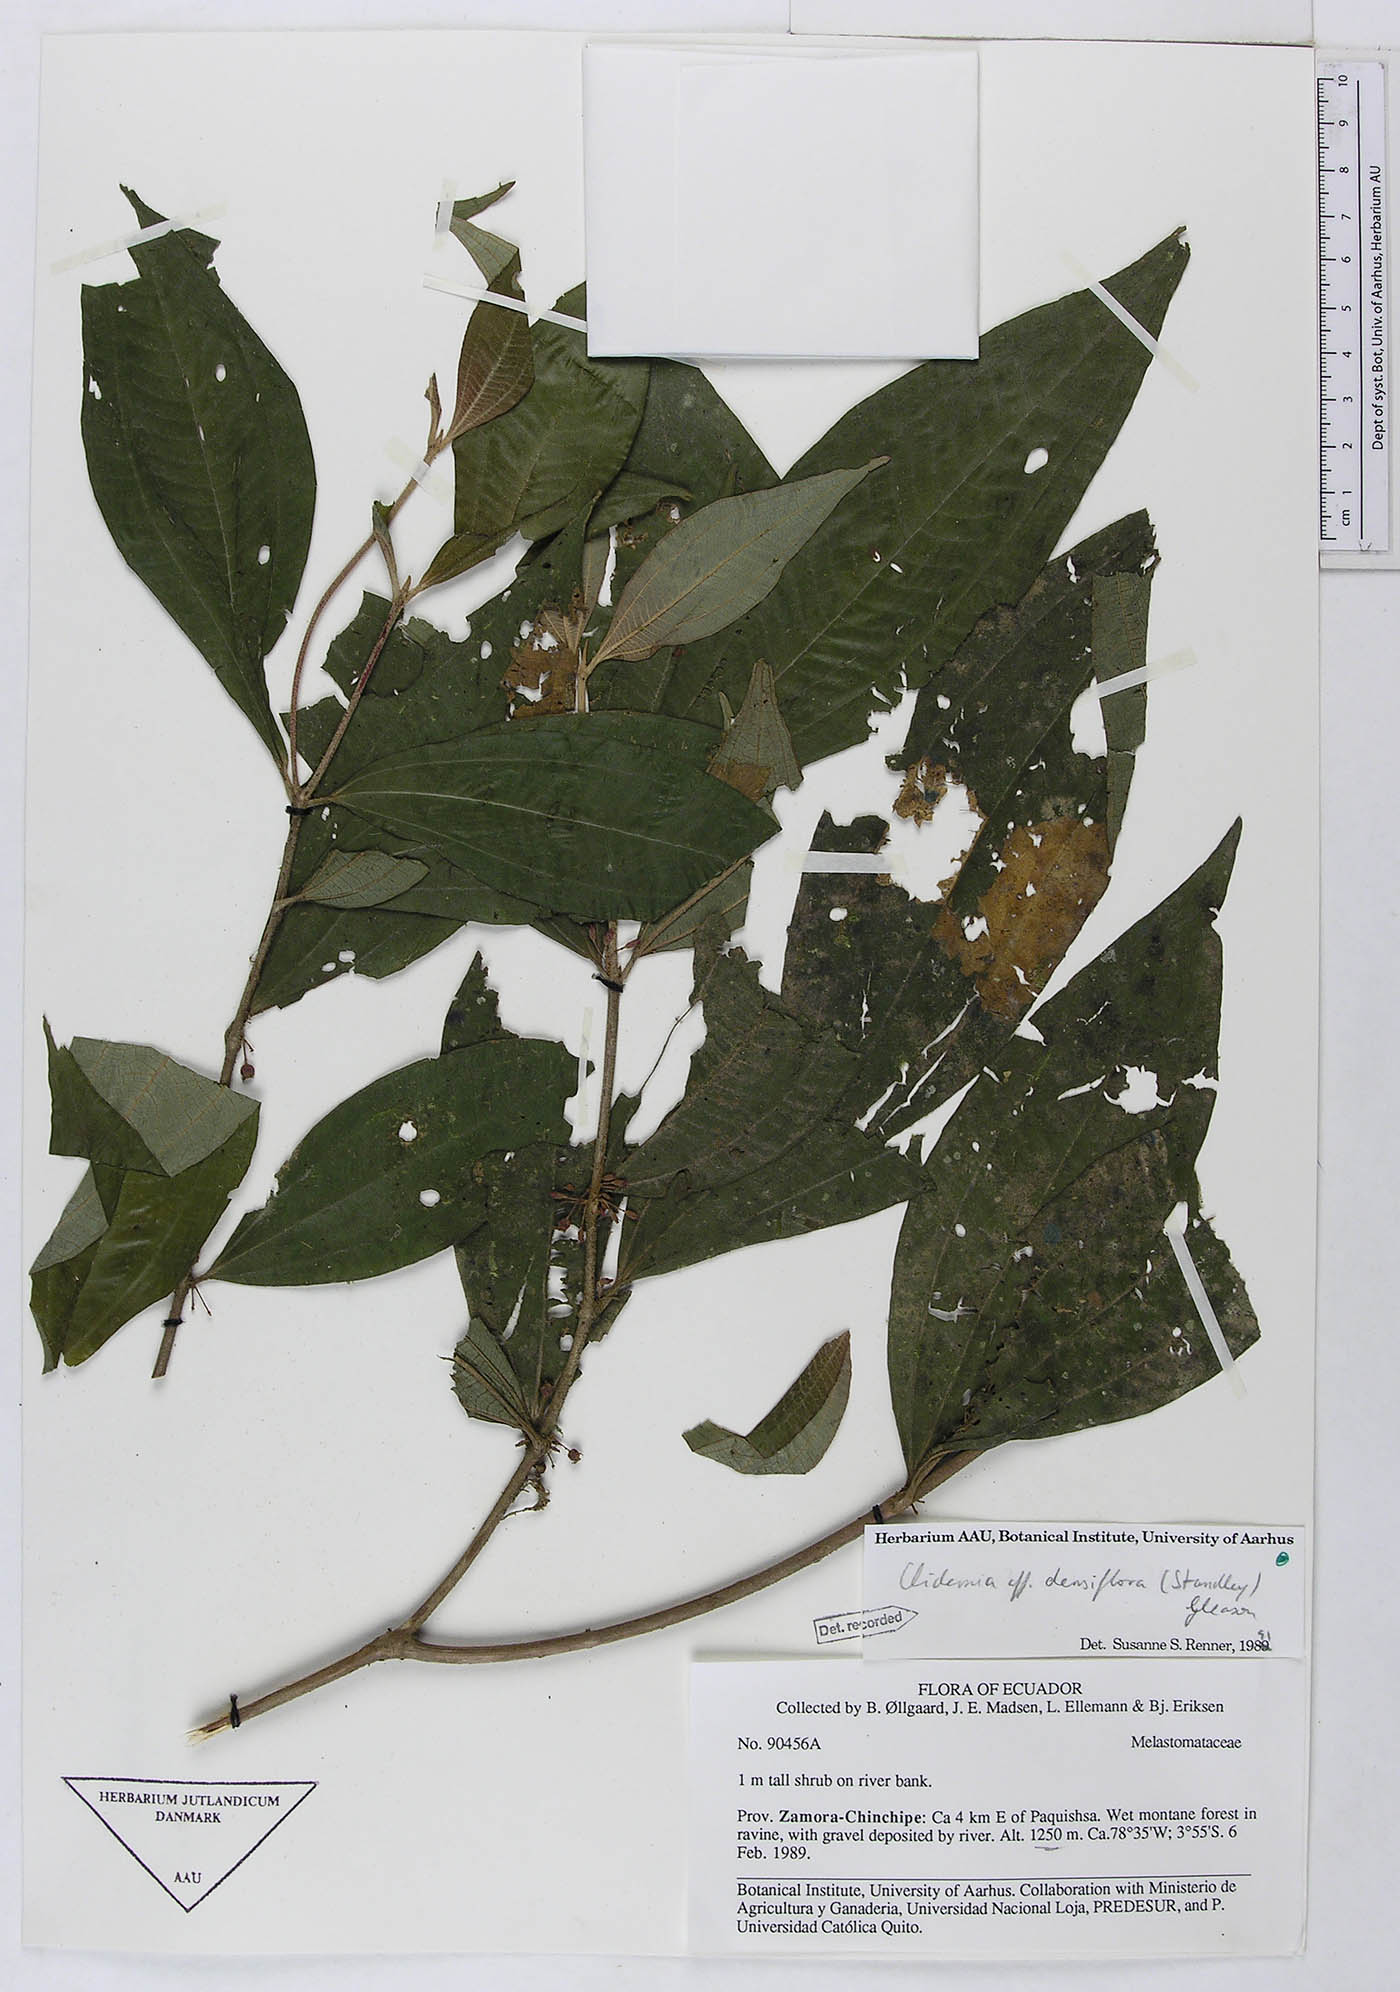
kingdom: Plantae
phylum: Tracheophyta
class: Magnoliopsida
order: Myrtales
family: Melastomataceae
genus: Miconia
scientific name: Miconia approximata
